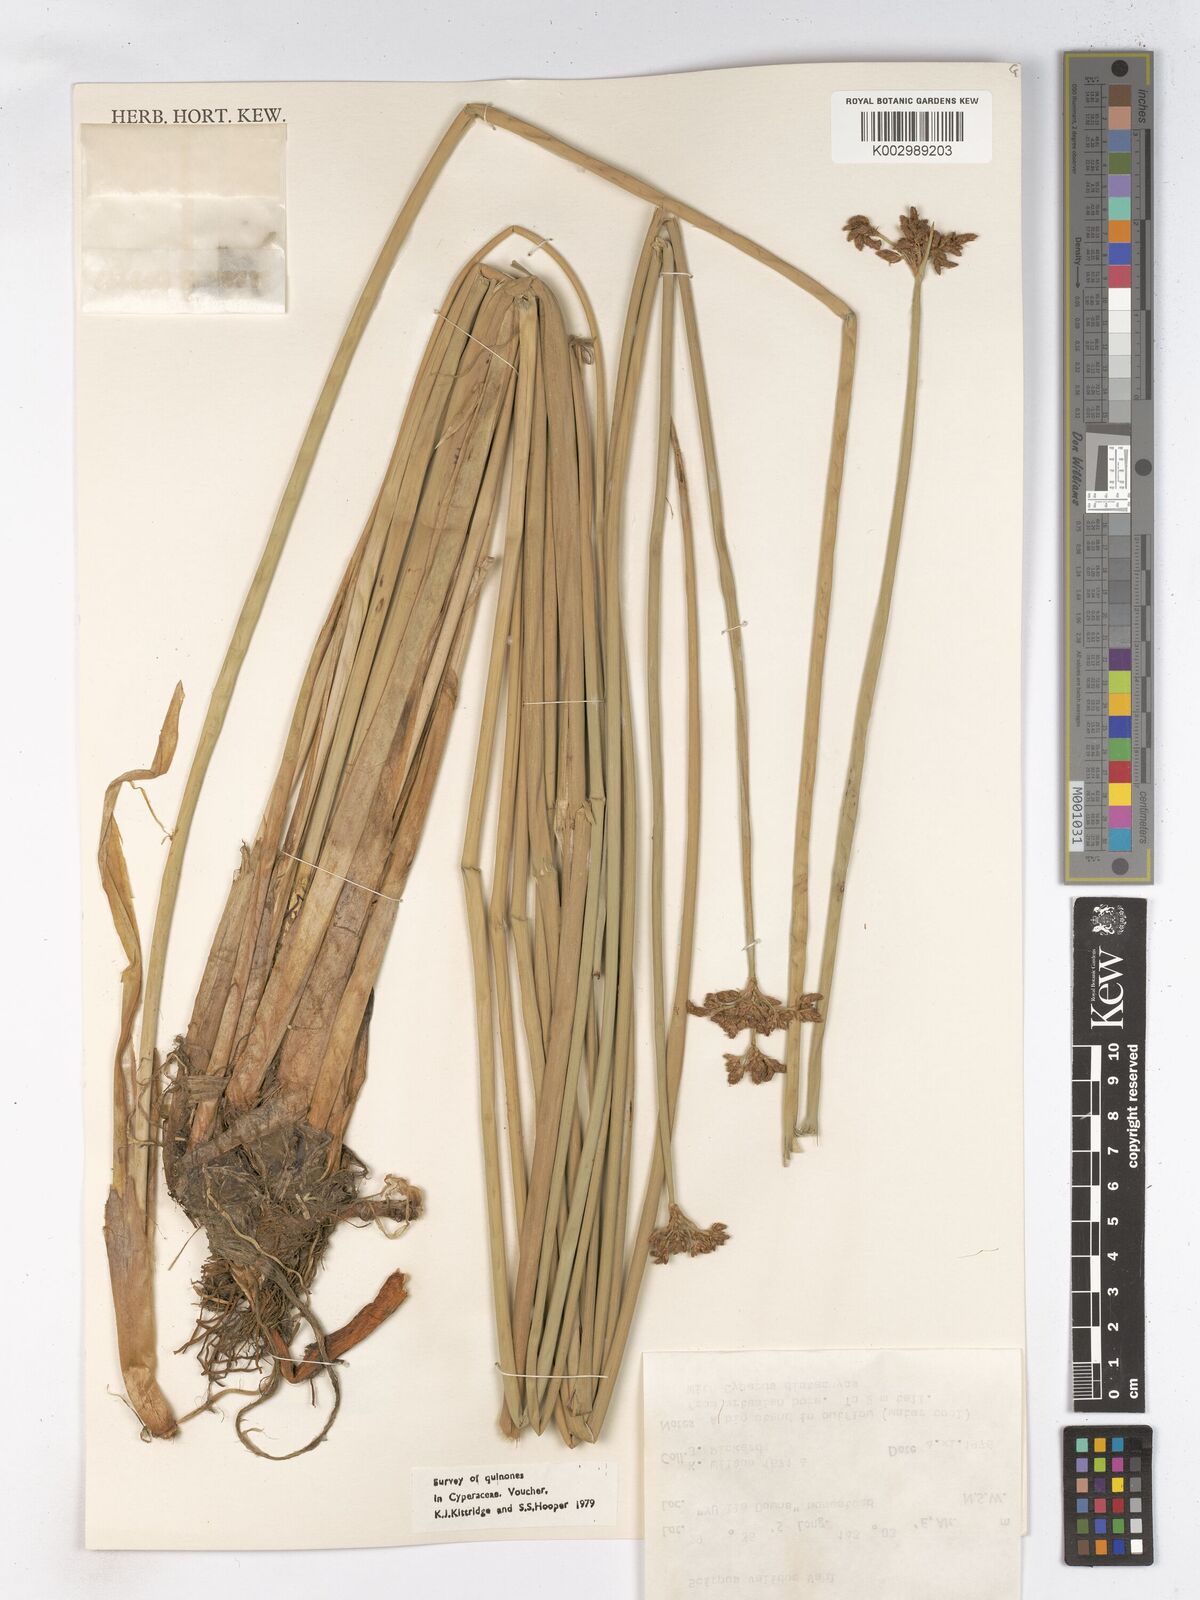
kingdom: Plantae
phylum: Tracheophyta
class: Liliopsida
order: Poales
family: Cyperaceae
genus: Schoenoplectus
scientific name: Schoenoplectus lacustris
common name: Common club-rush
